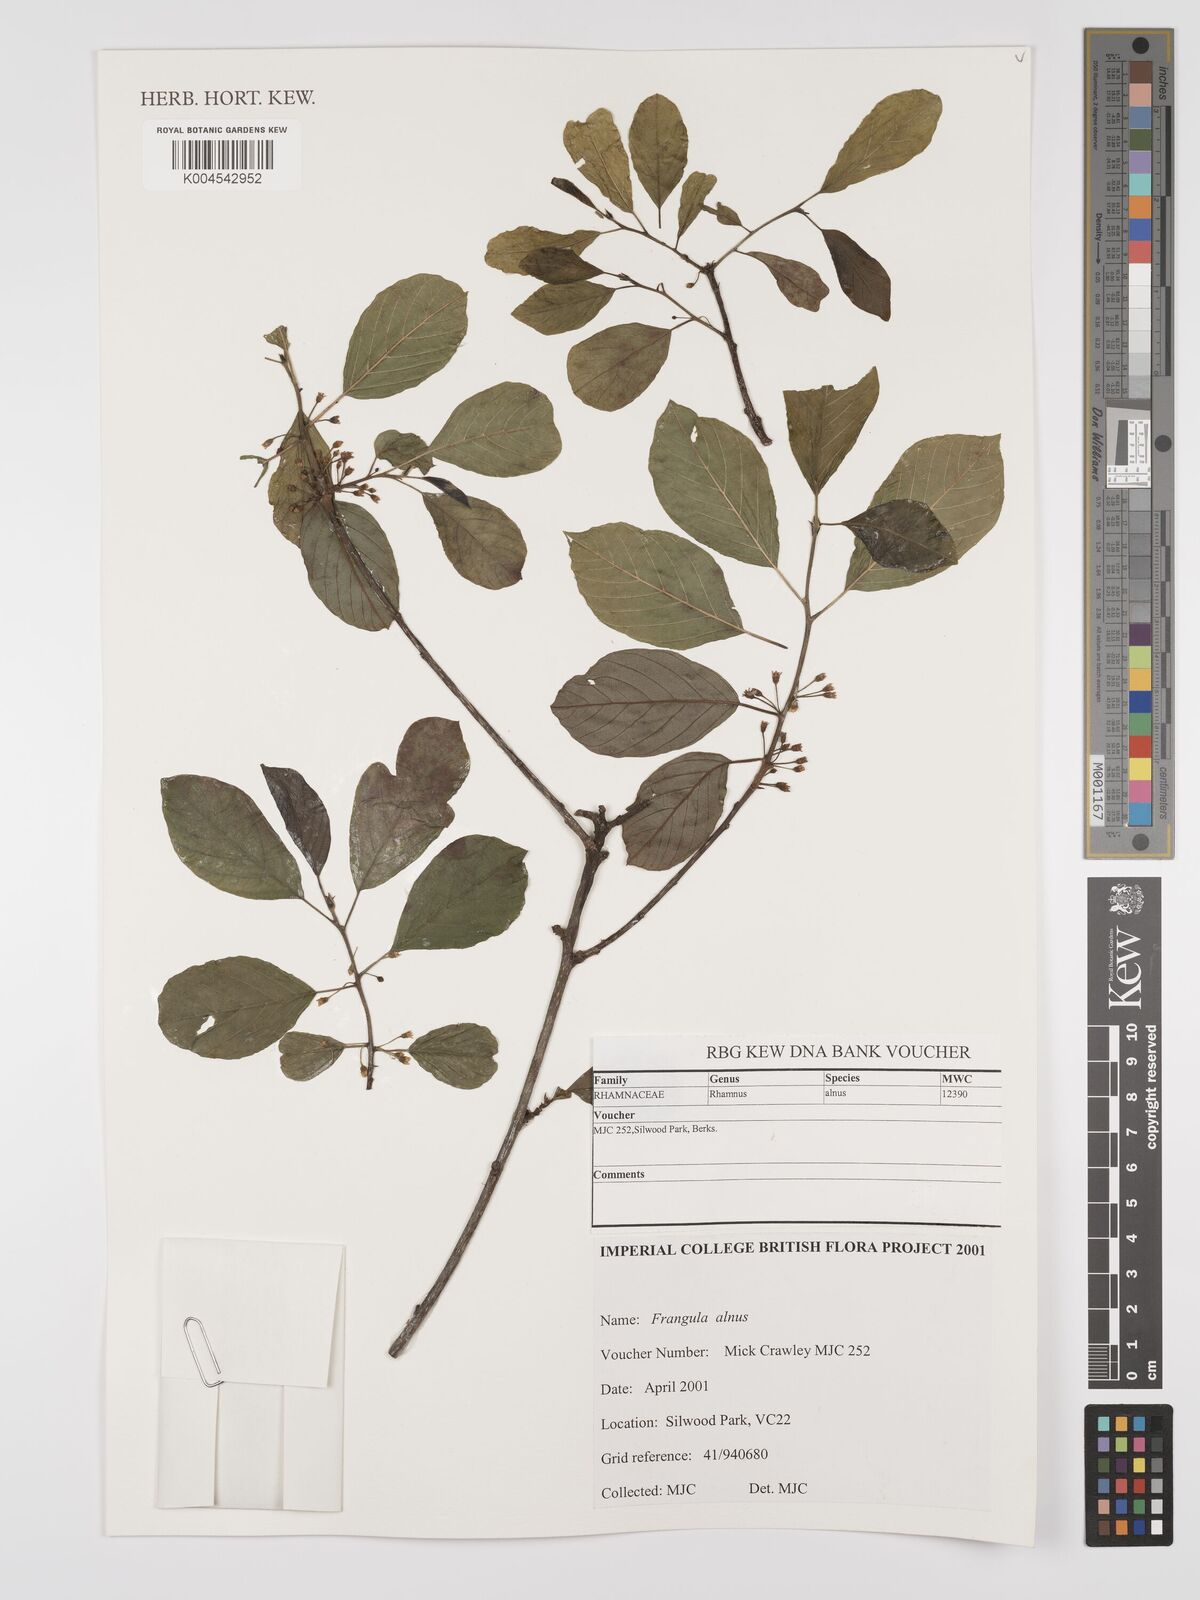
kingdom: Plantae
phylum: Tracheophyta
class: Magnoliopsida
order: Rosales
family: Rhamnaceae
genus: Frangula
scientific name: Frangula alnus
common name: Alder buckthorn
